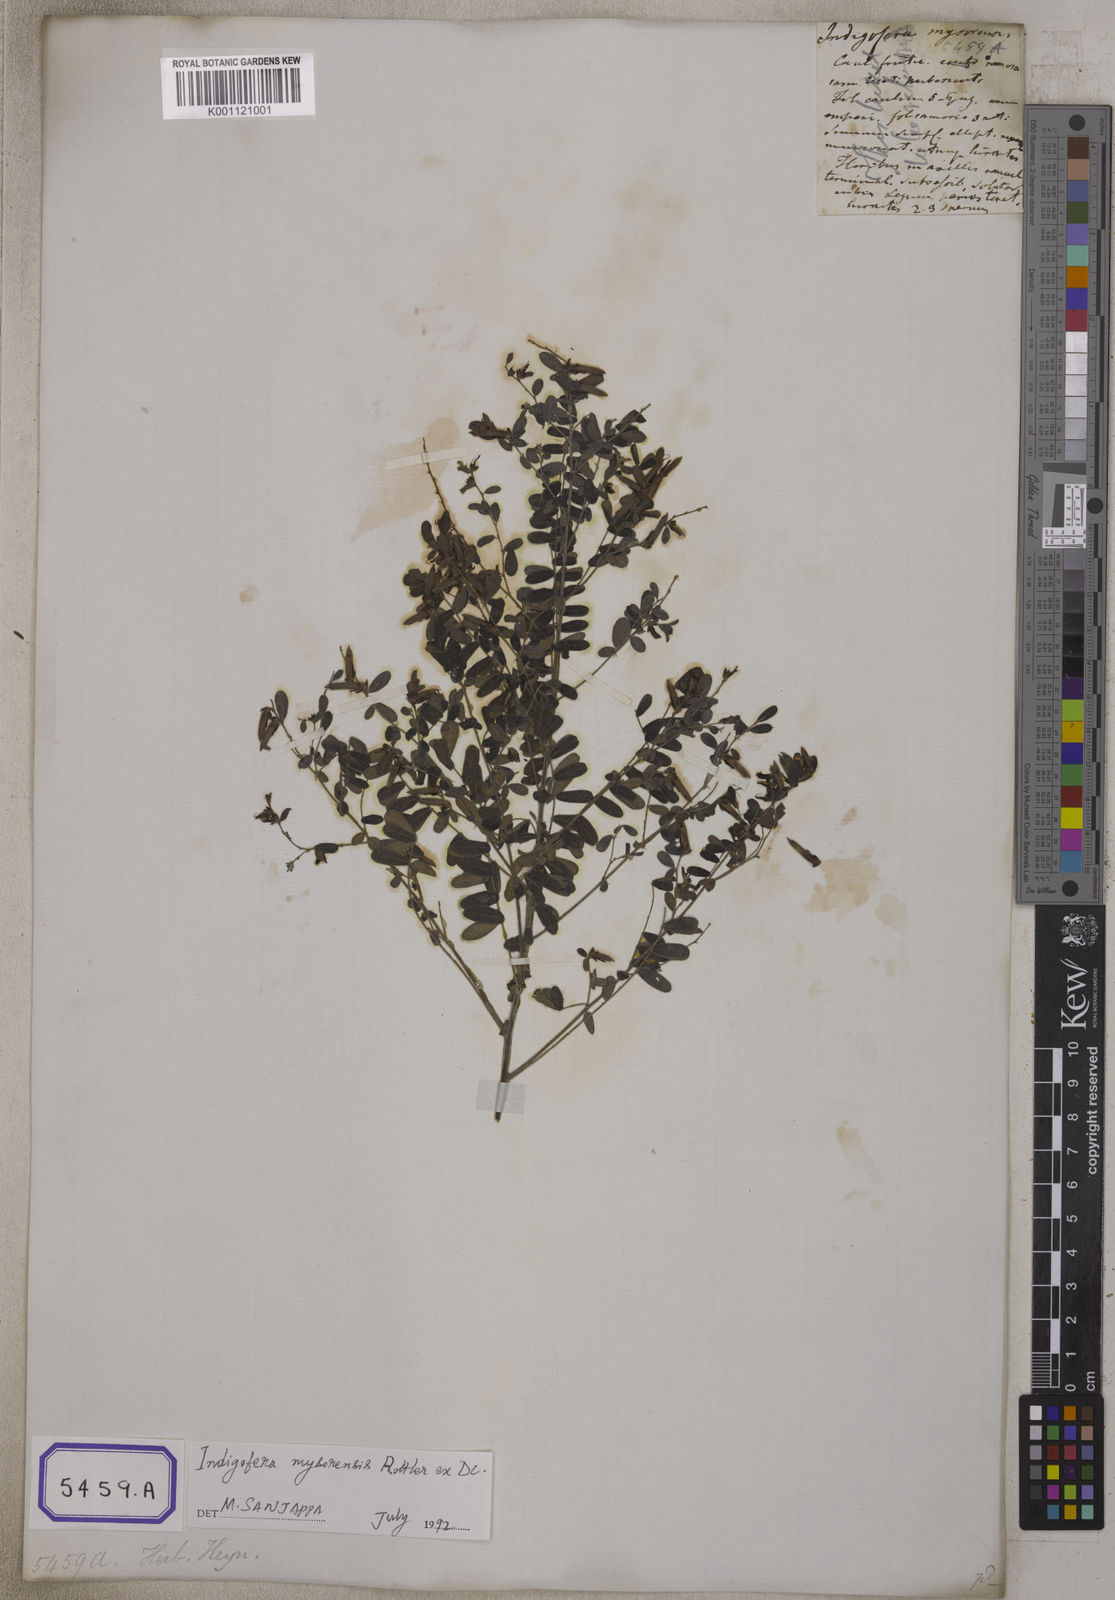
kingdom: Plantae
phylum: Tracheophyta
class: Magnoliopsida
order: Fabales
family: Fabaceae
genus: Indigofera
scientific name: Indigofera mysorensis
